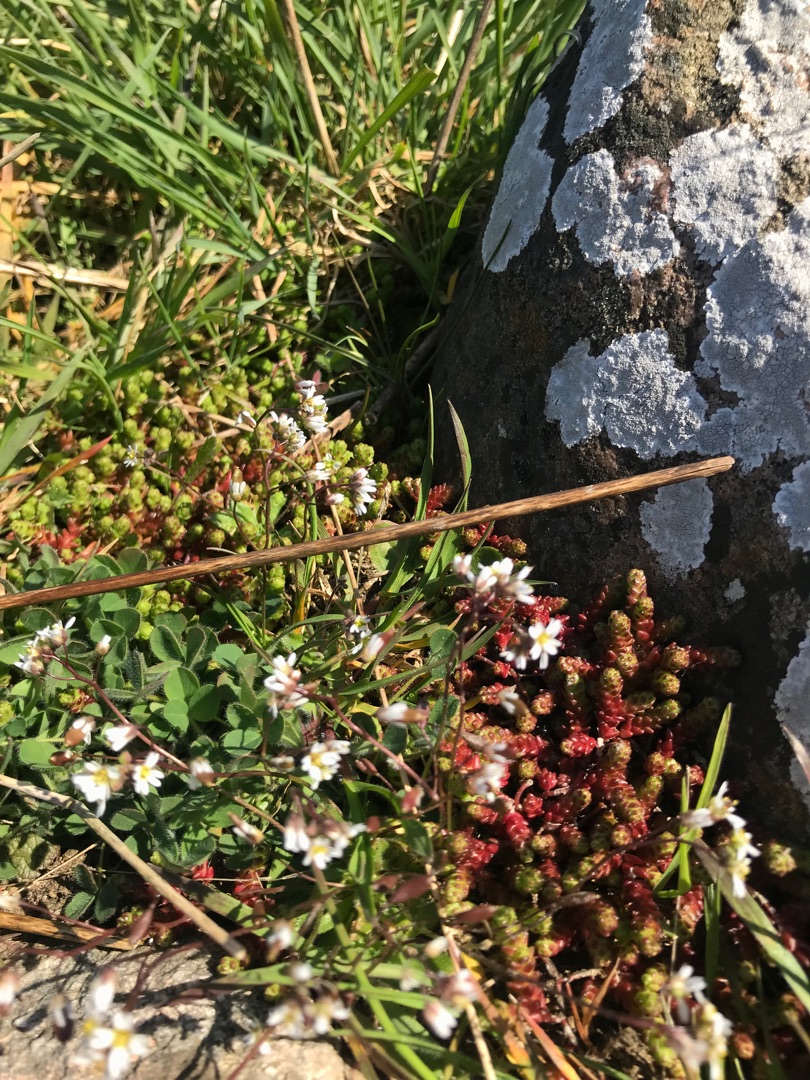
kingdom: Plantae
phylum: Tracheophyta
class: Magnoliopsida
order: Brassicales
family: Brassicaceae
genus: Draba
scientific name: Draba verna
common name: Vår-gæslingeblomst
